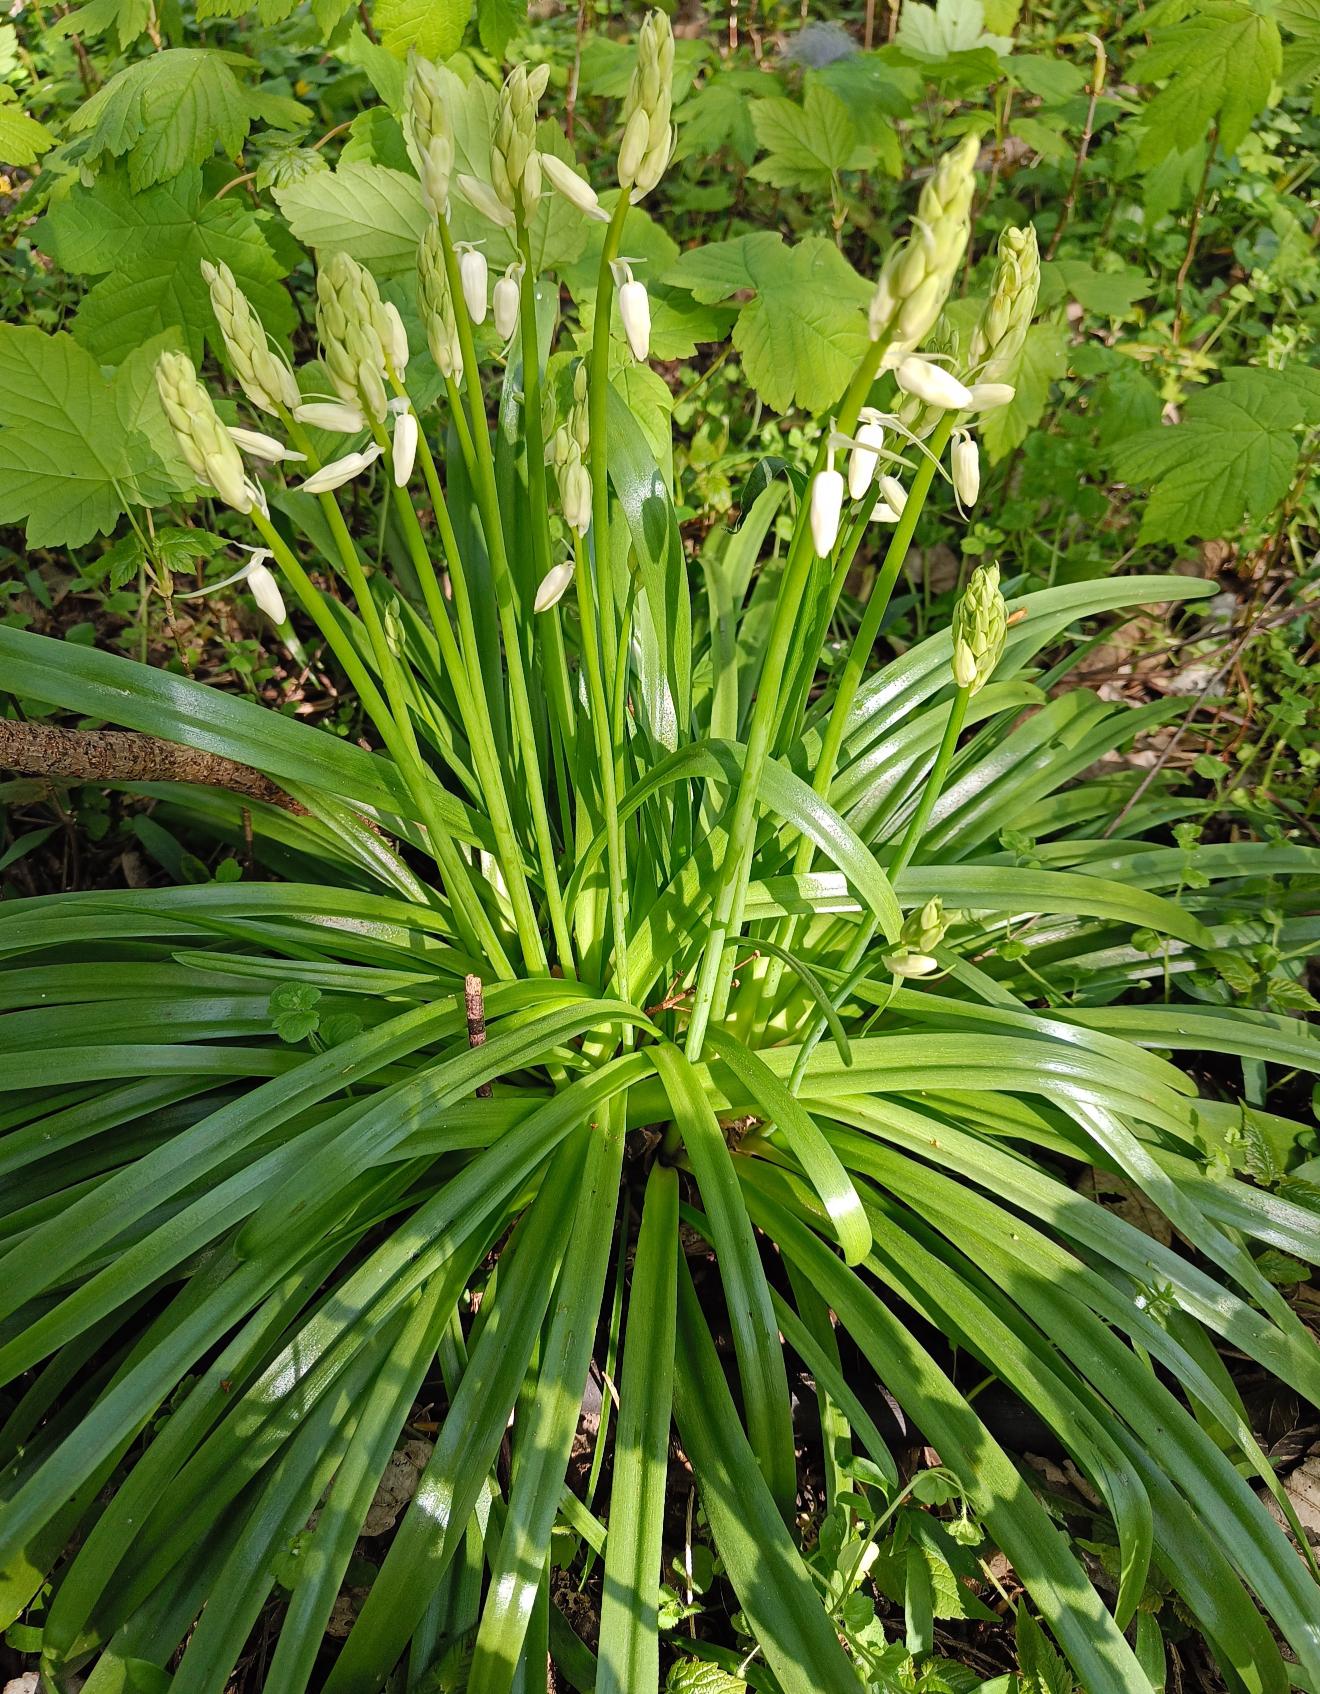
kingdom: Plantae
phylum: Tracheophyta
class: Liliopsida
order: Asparagales
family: Asparagaceae
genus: Hyacinthoides
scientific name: Hyacinthoides
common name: Skilla (Hyacinthoides-slægten)
